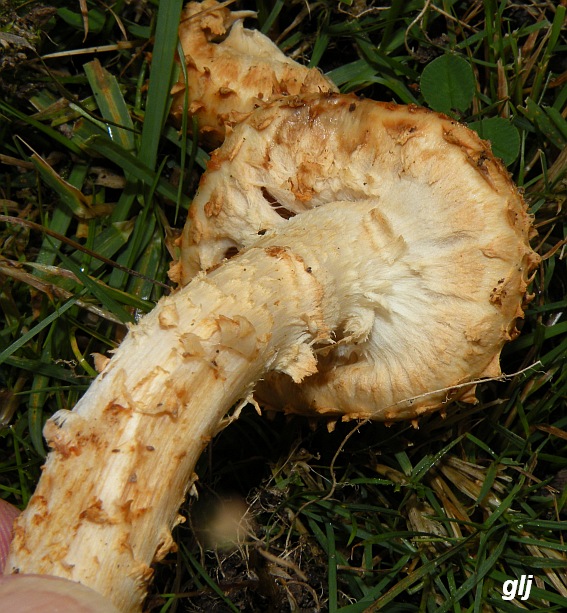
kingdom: Fungi
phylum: Basidiomycota
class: Agaricomycetes
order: Agaricales
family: Strophariaceae
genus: Pholiota
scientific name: Pholiota squarrosa
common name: krumskællet skælhat
